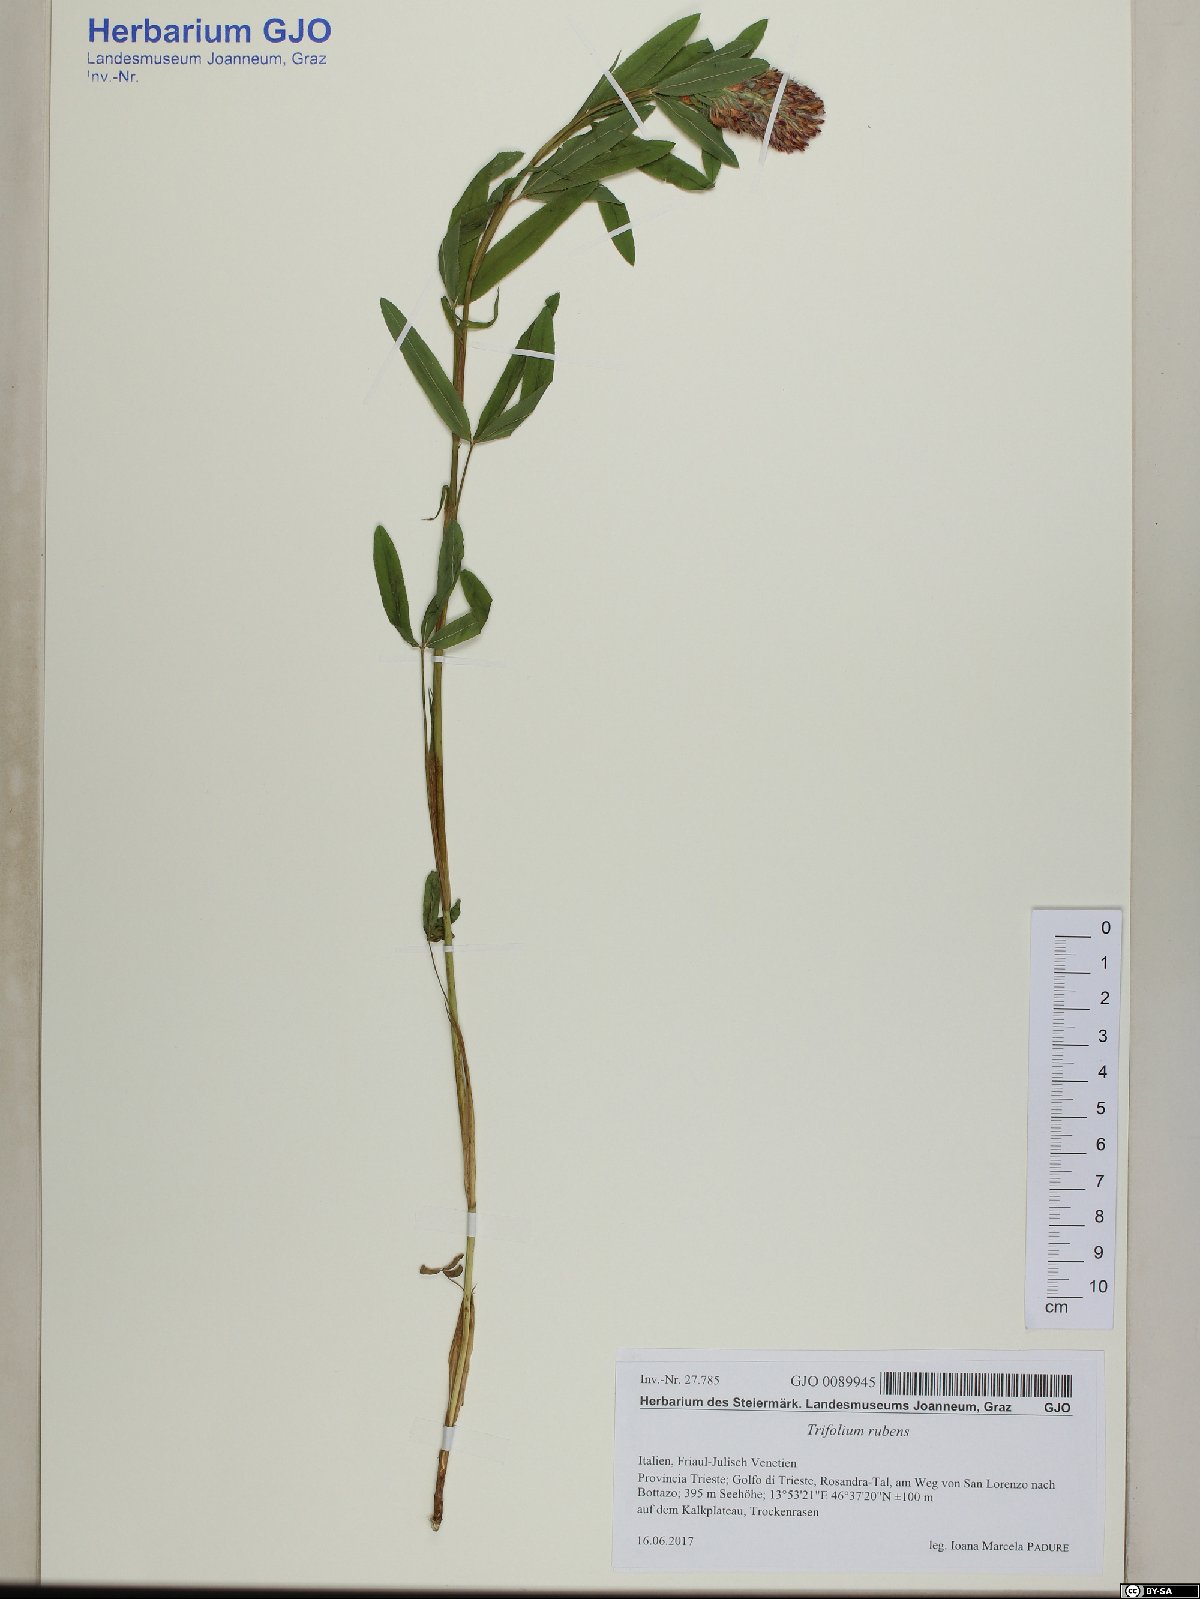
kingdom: Plantae
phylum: Tracheophyta
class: Magnoliopsida
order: Fabales
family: Fabaceae
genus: Trifolium
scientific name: Trifolium rubens
